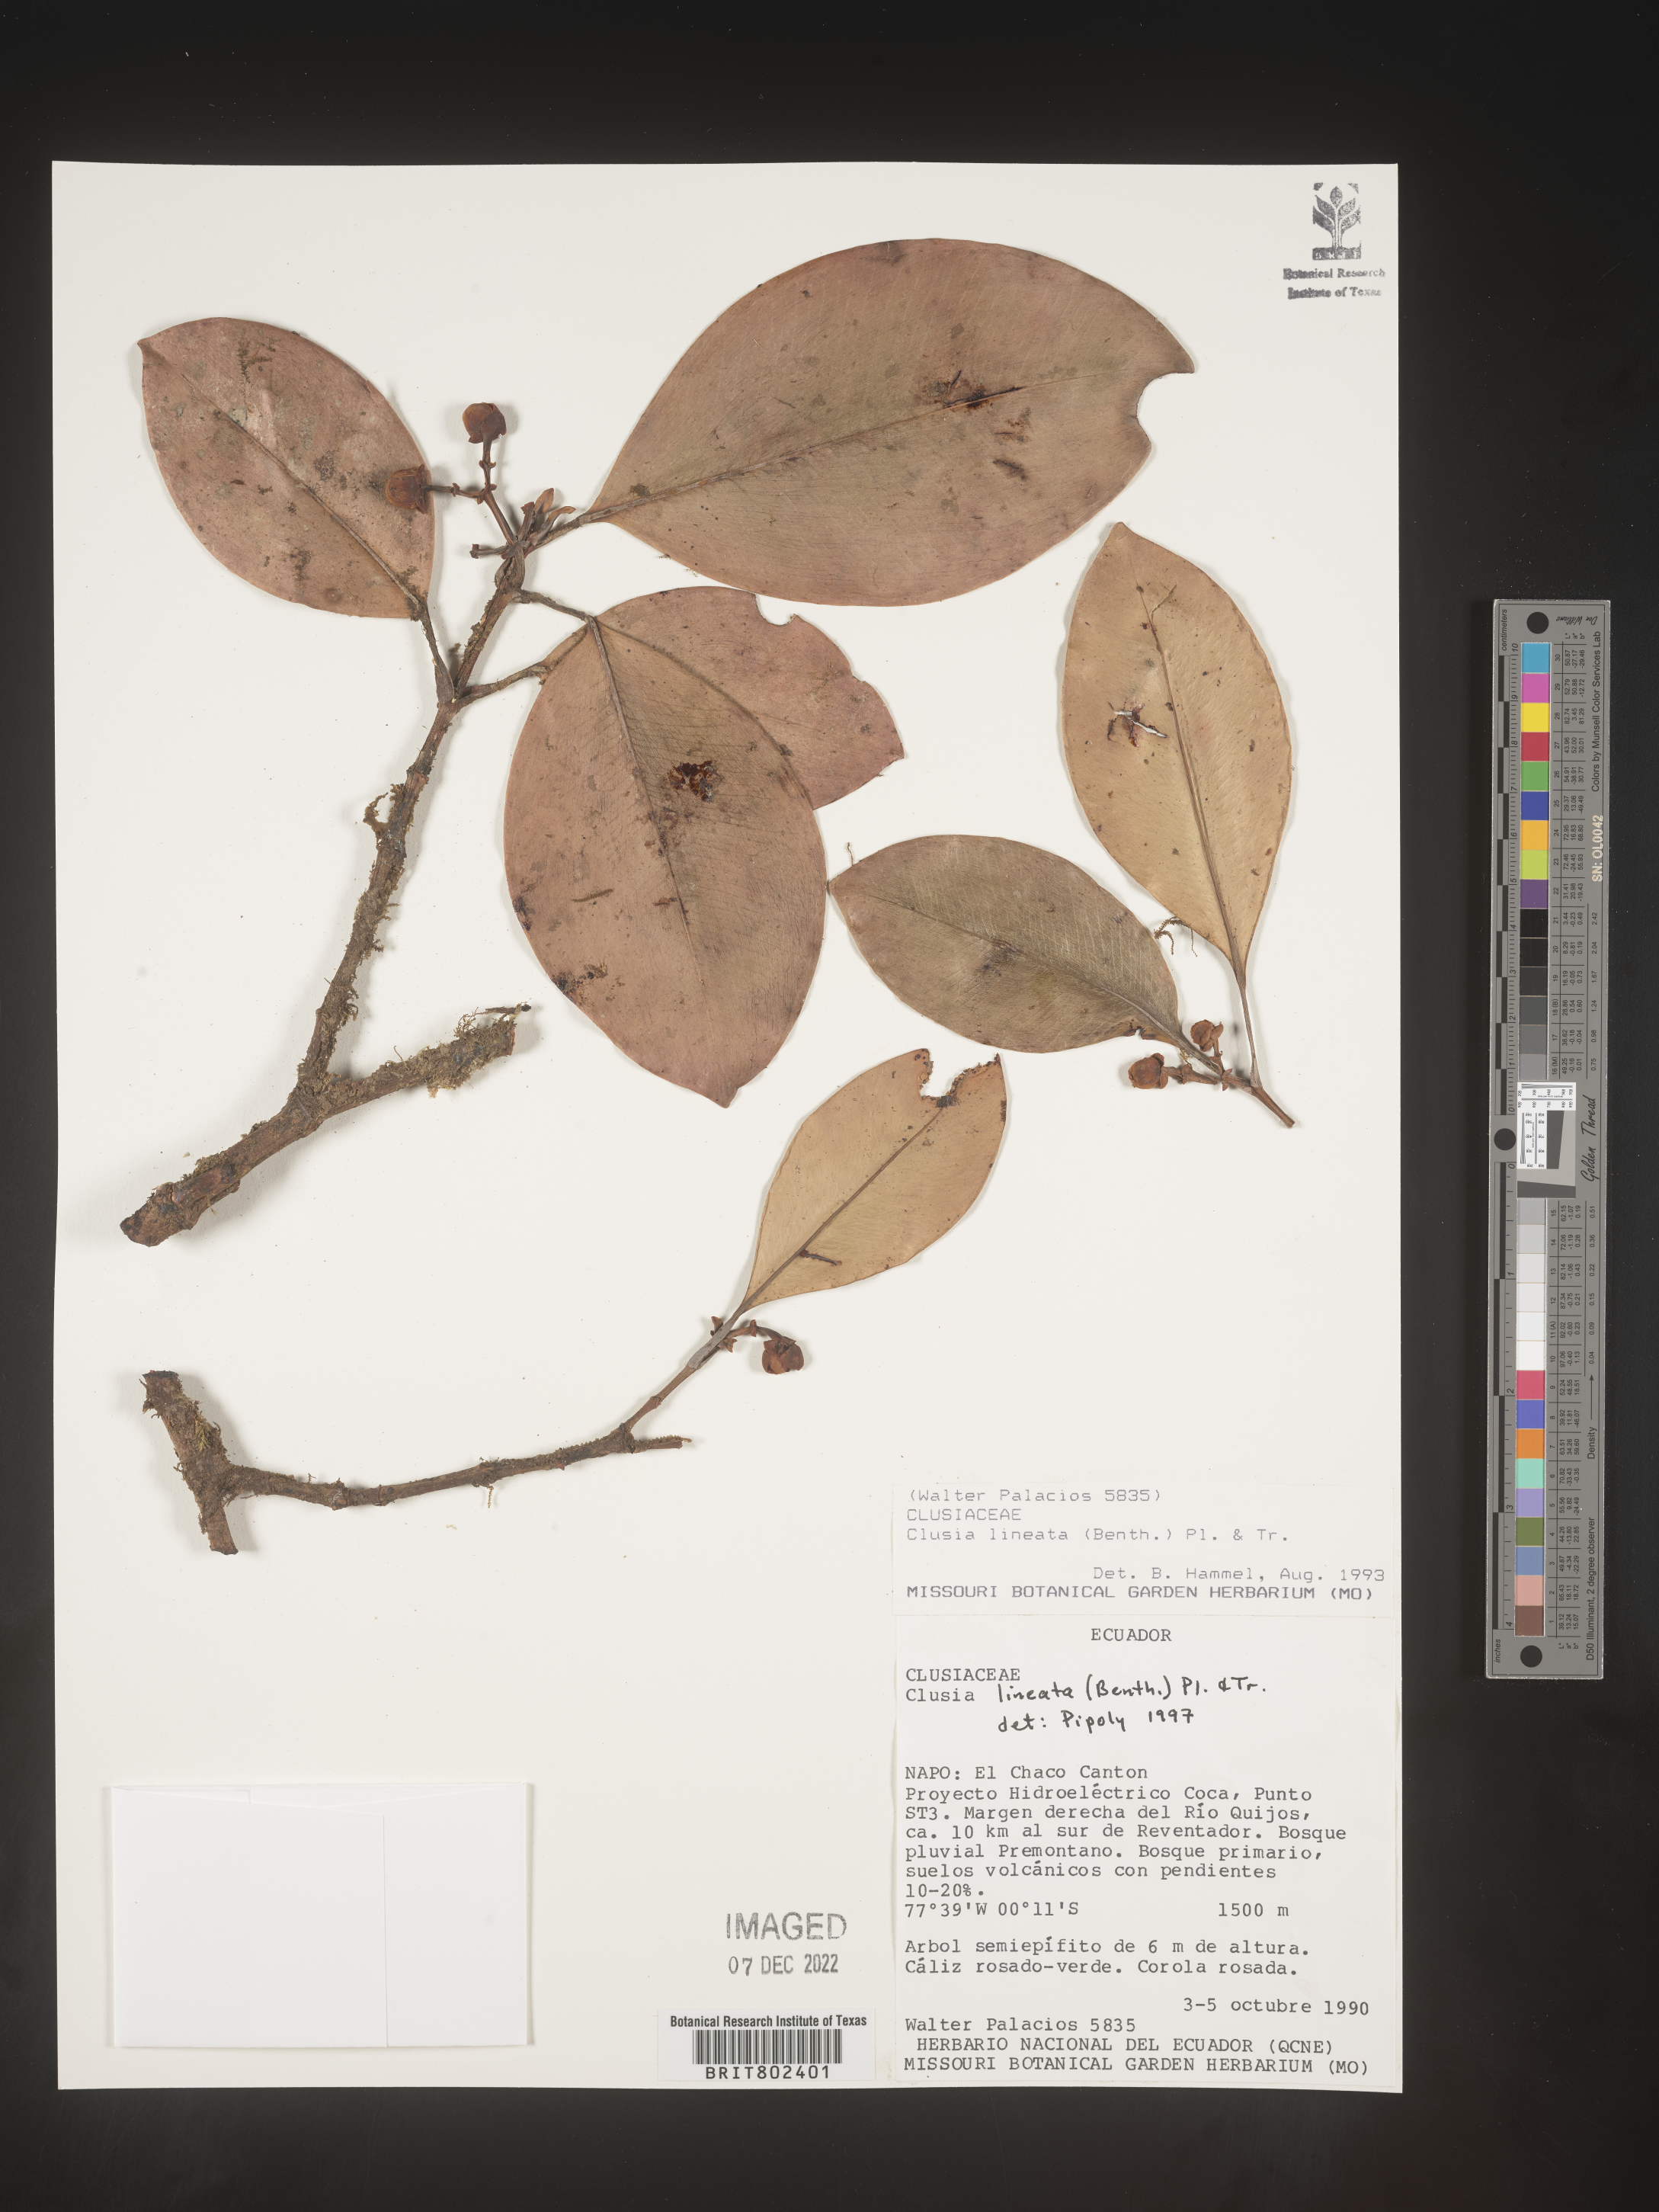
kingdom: Plantae
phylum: Tracheophyta
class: Magnoliopsida
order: Malpighiales
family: Clusiaceae
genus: Clusia
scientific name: Clusia lineata
